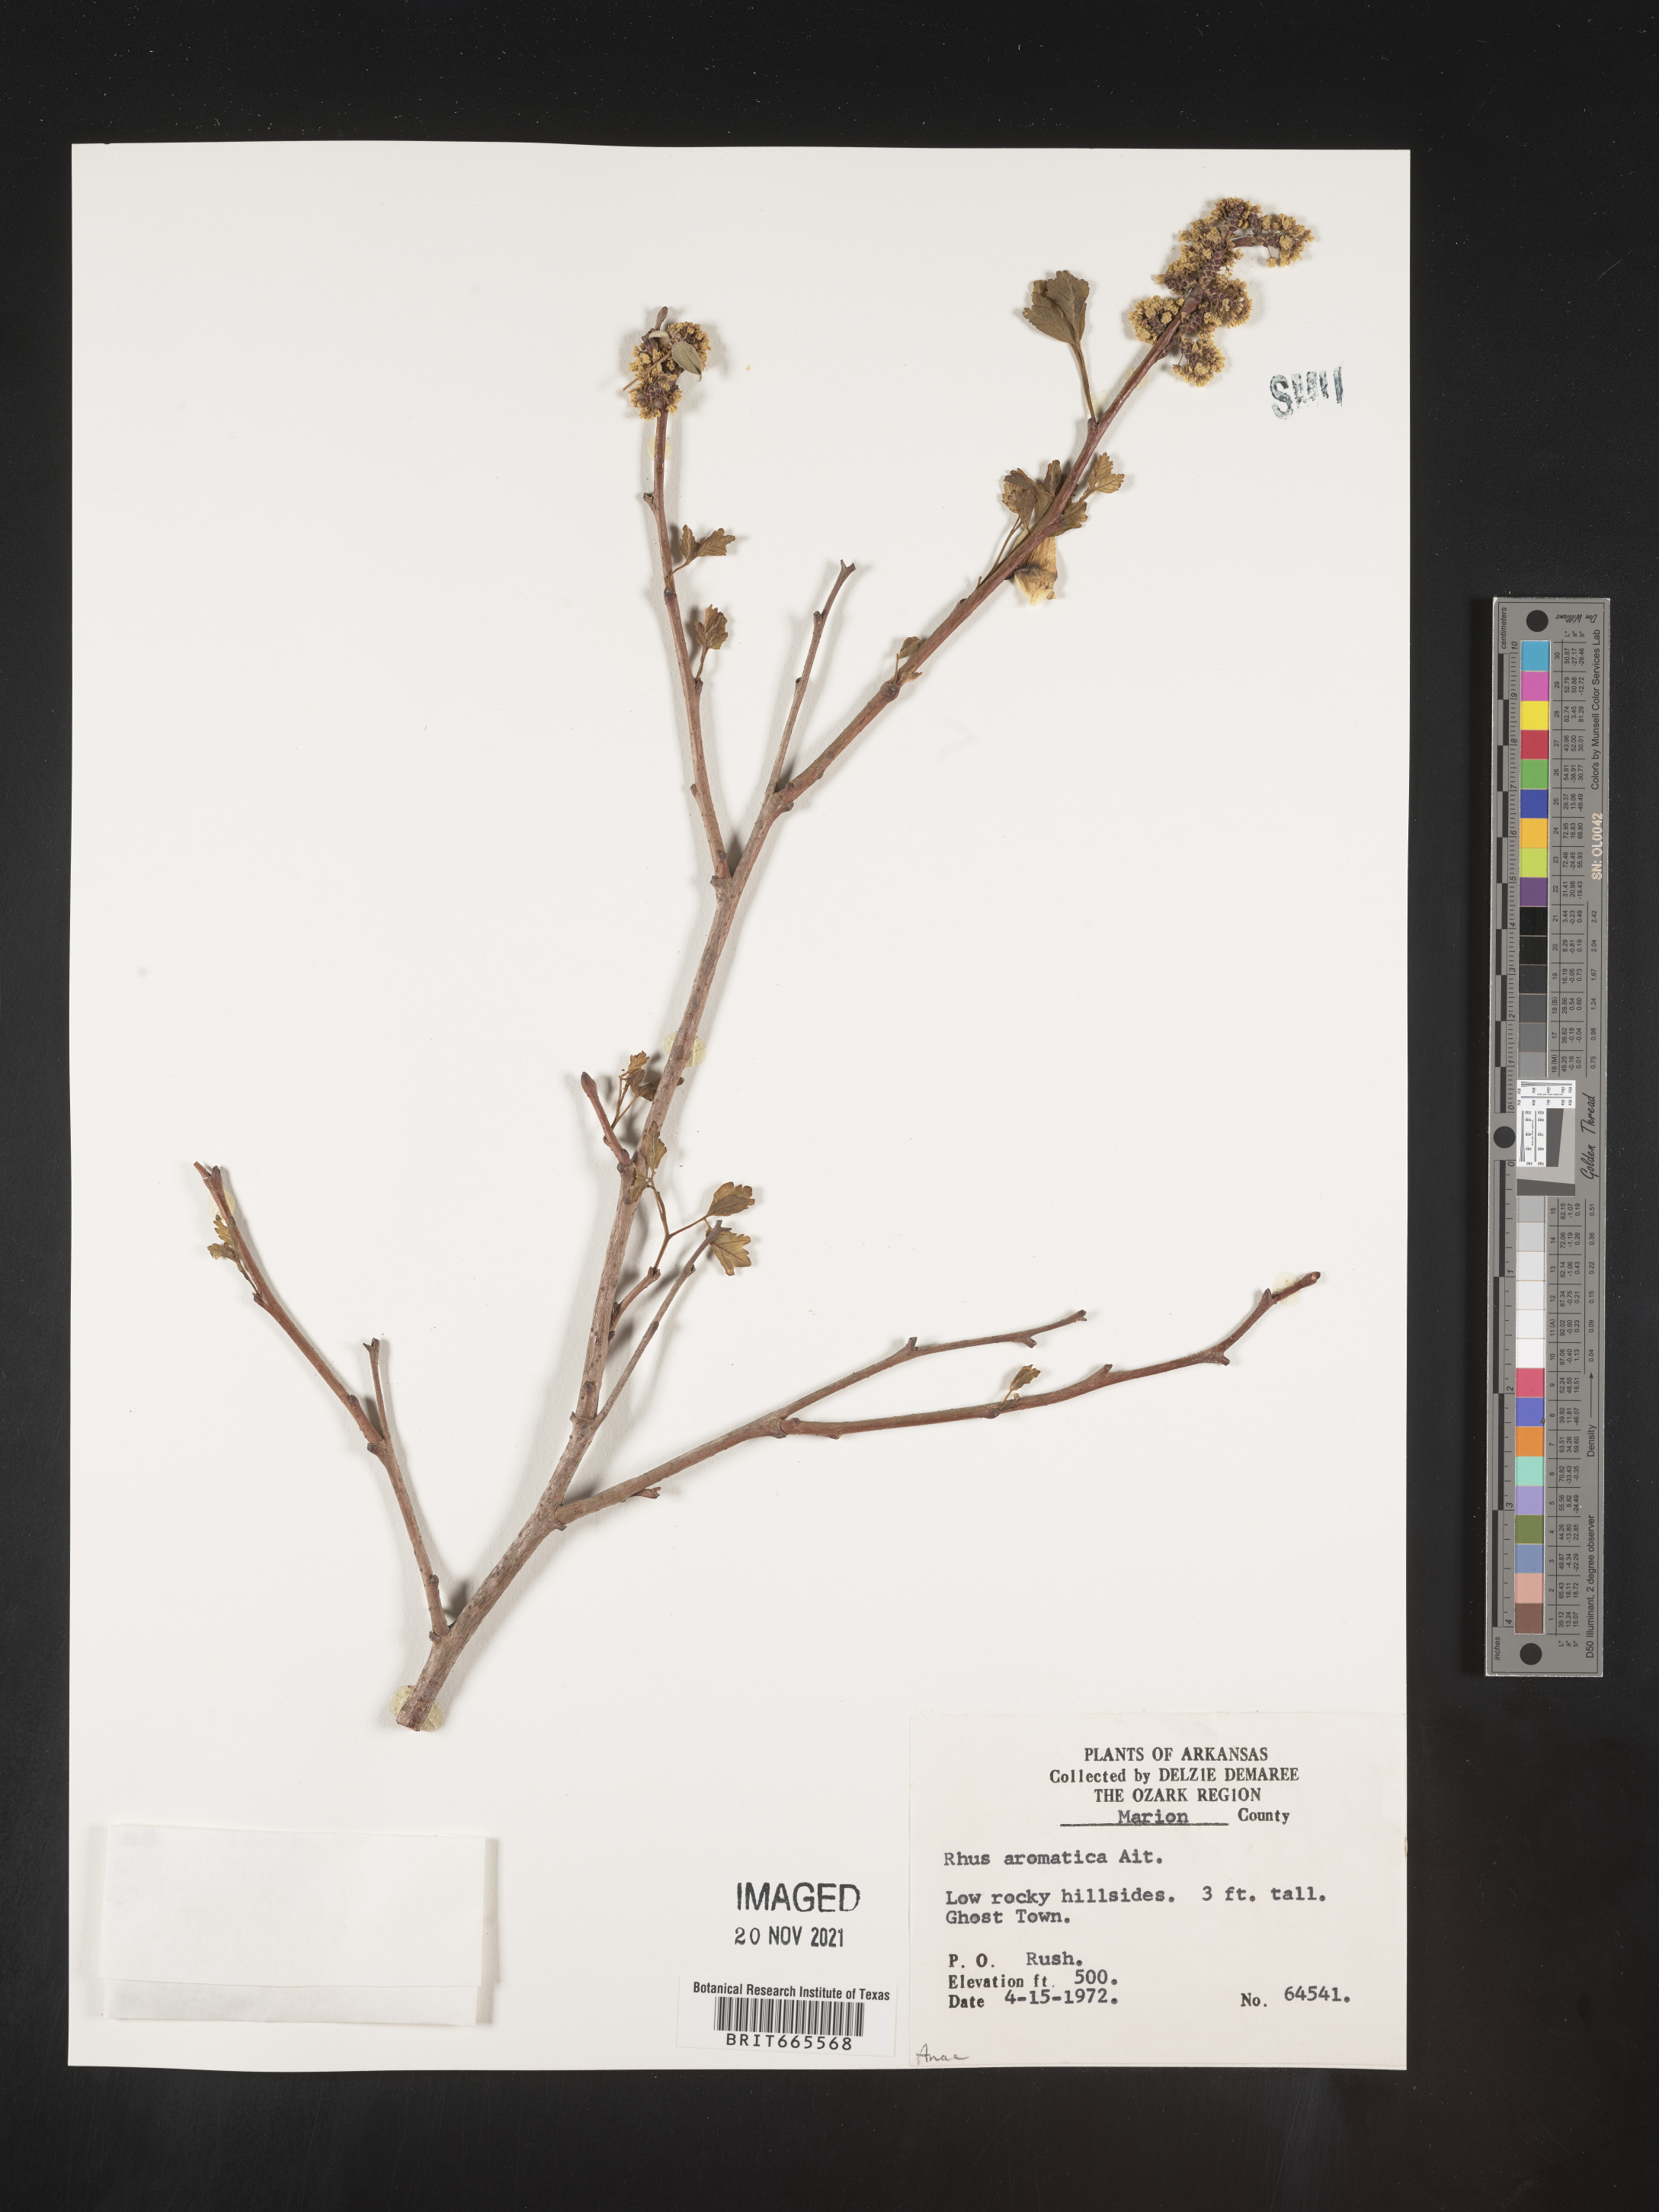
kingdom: Plantae
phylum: Tracheophyta
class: Magnoliopsida
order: Sapindales
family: Anacardiaceae
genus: Rhus
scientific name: Rhus aromatica
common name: Aromatic sumac
